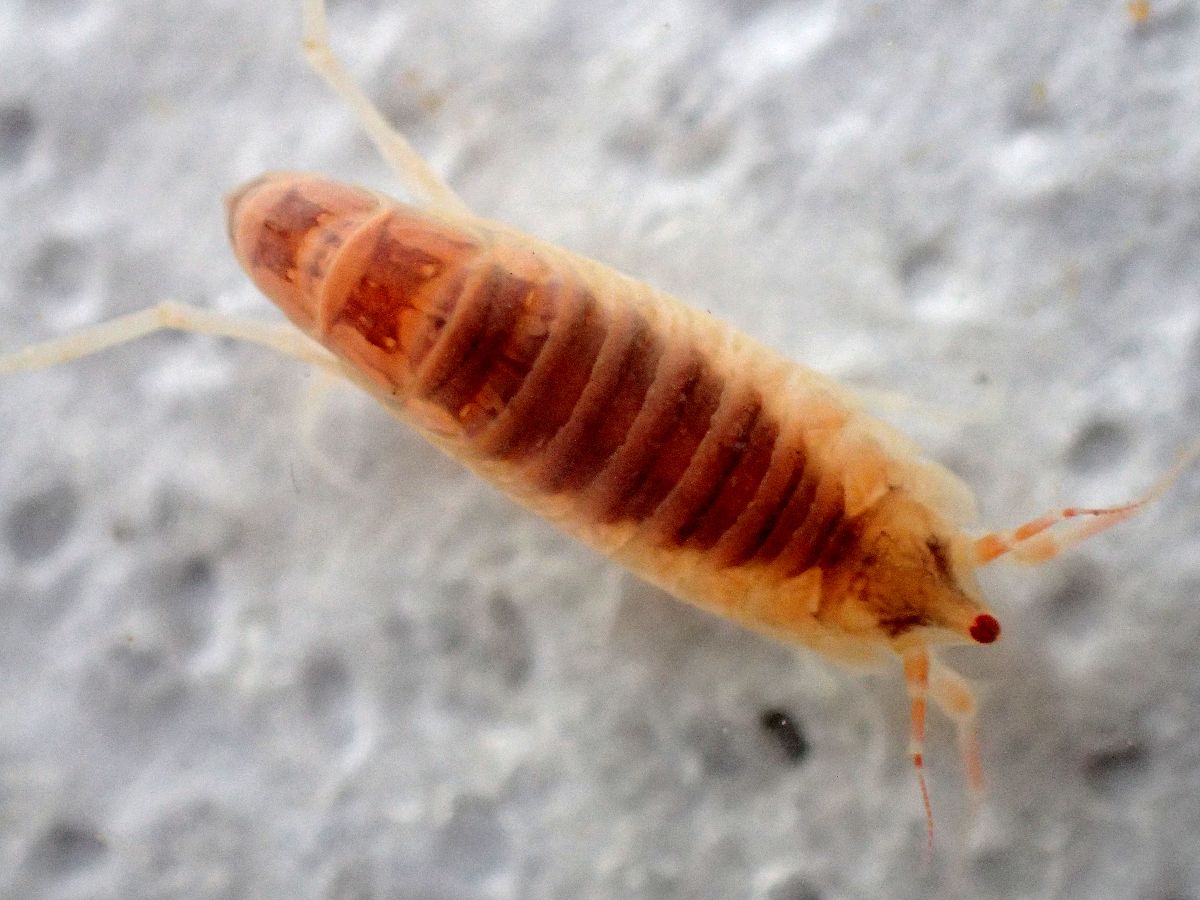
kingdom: Animalia
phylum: Arthropoda
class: Malacostraca
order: Amphipoda
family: Oedicerotidae
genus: Paroediceros
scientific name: Paroediceros lynceus
